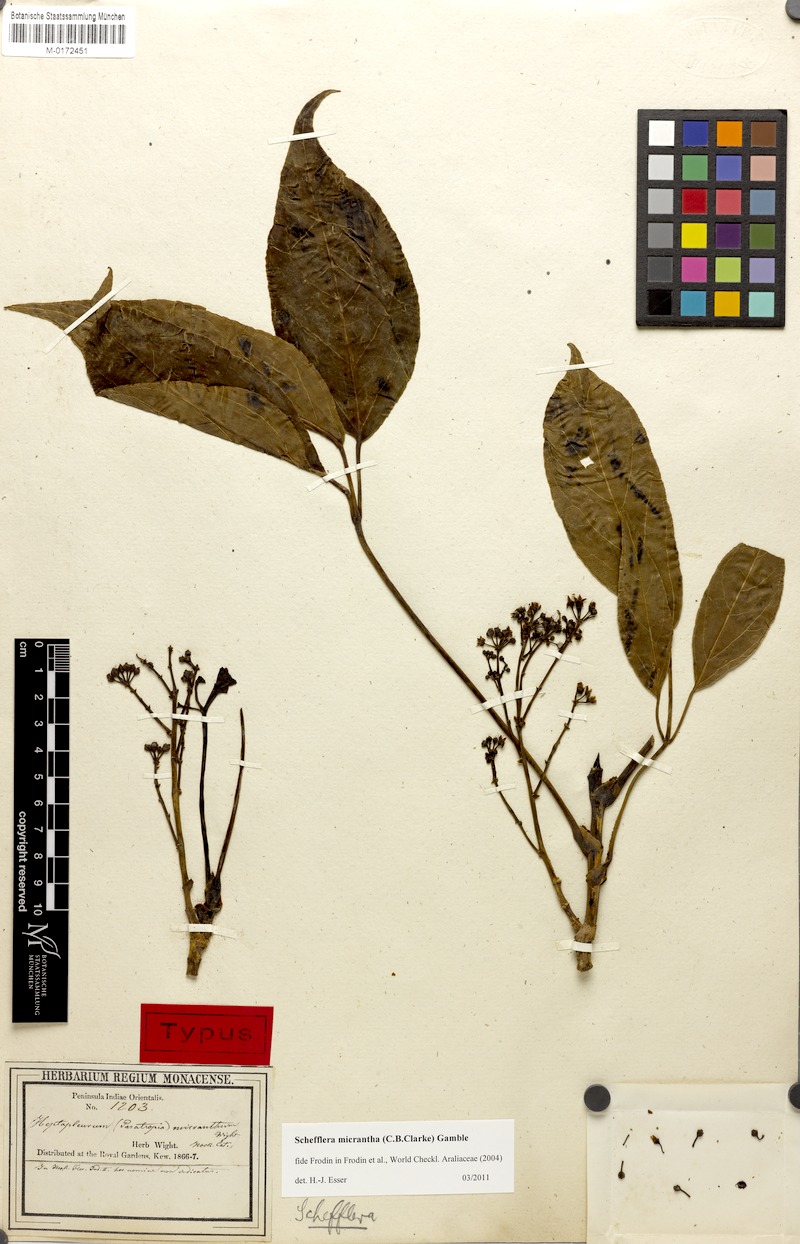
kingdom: Plantae
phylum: Tracheophyta
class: Magnoliopsida
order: Apiales
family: Araliaceae
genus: Heptapleurum
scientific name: Heptapleurum clarkei
